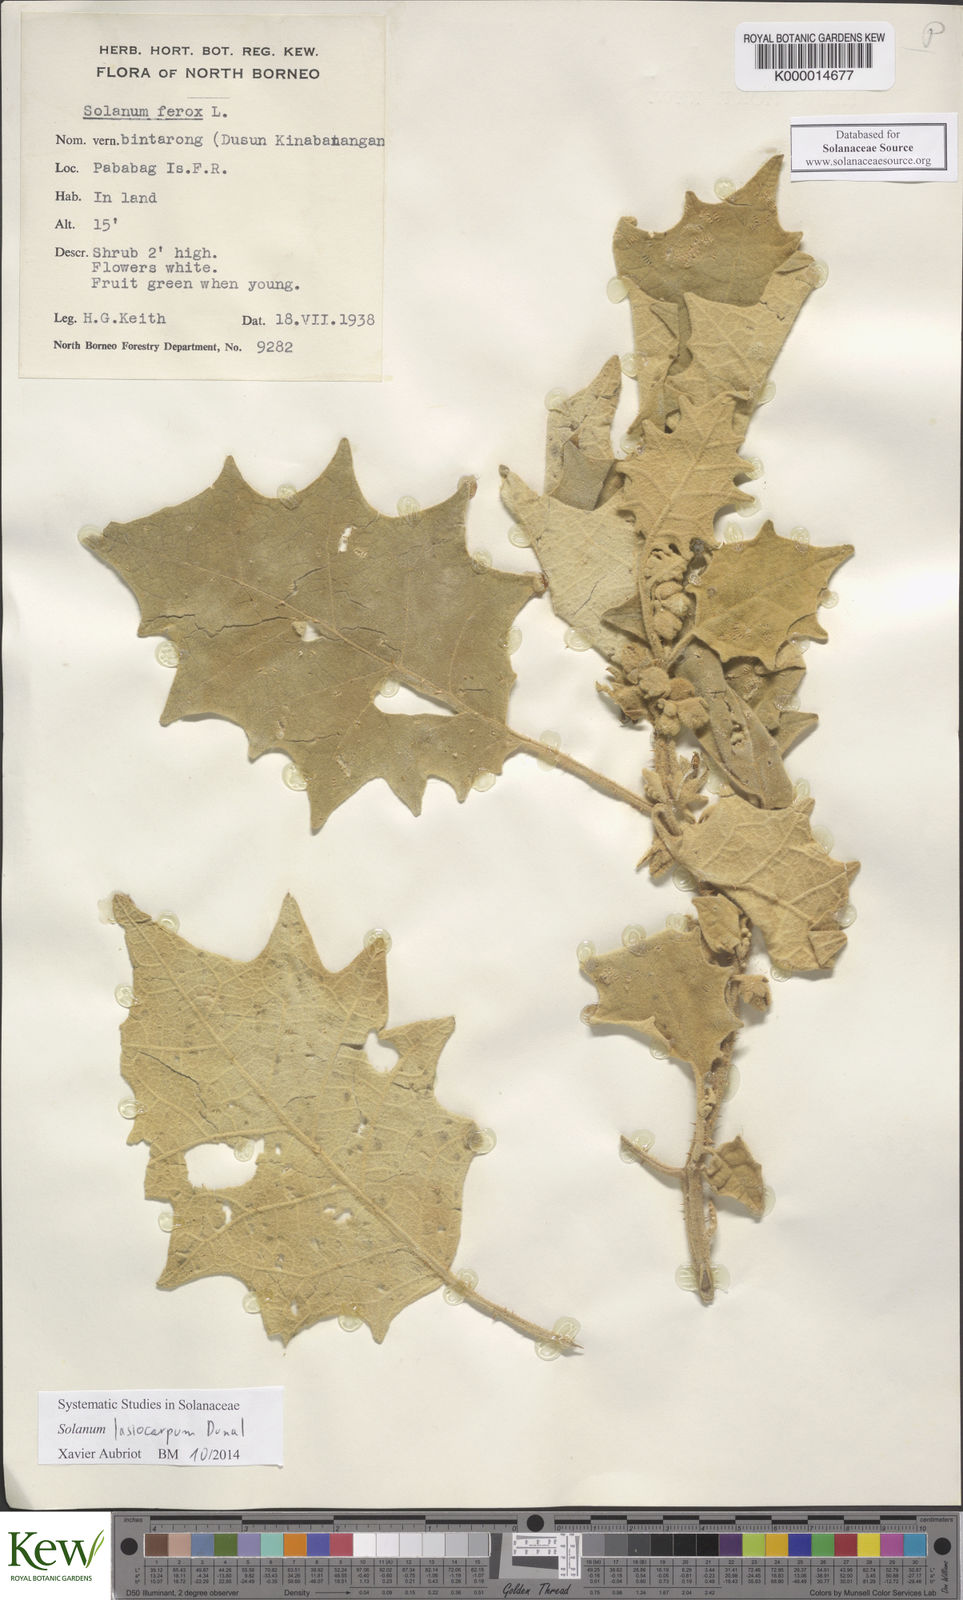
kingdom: Plantae
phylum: Tracheophyta
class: Magnoliopsida
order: Solanales
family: Solanaceae
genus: Solanum
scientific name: Solanum lasiocarpum
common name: Indian nightshade
